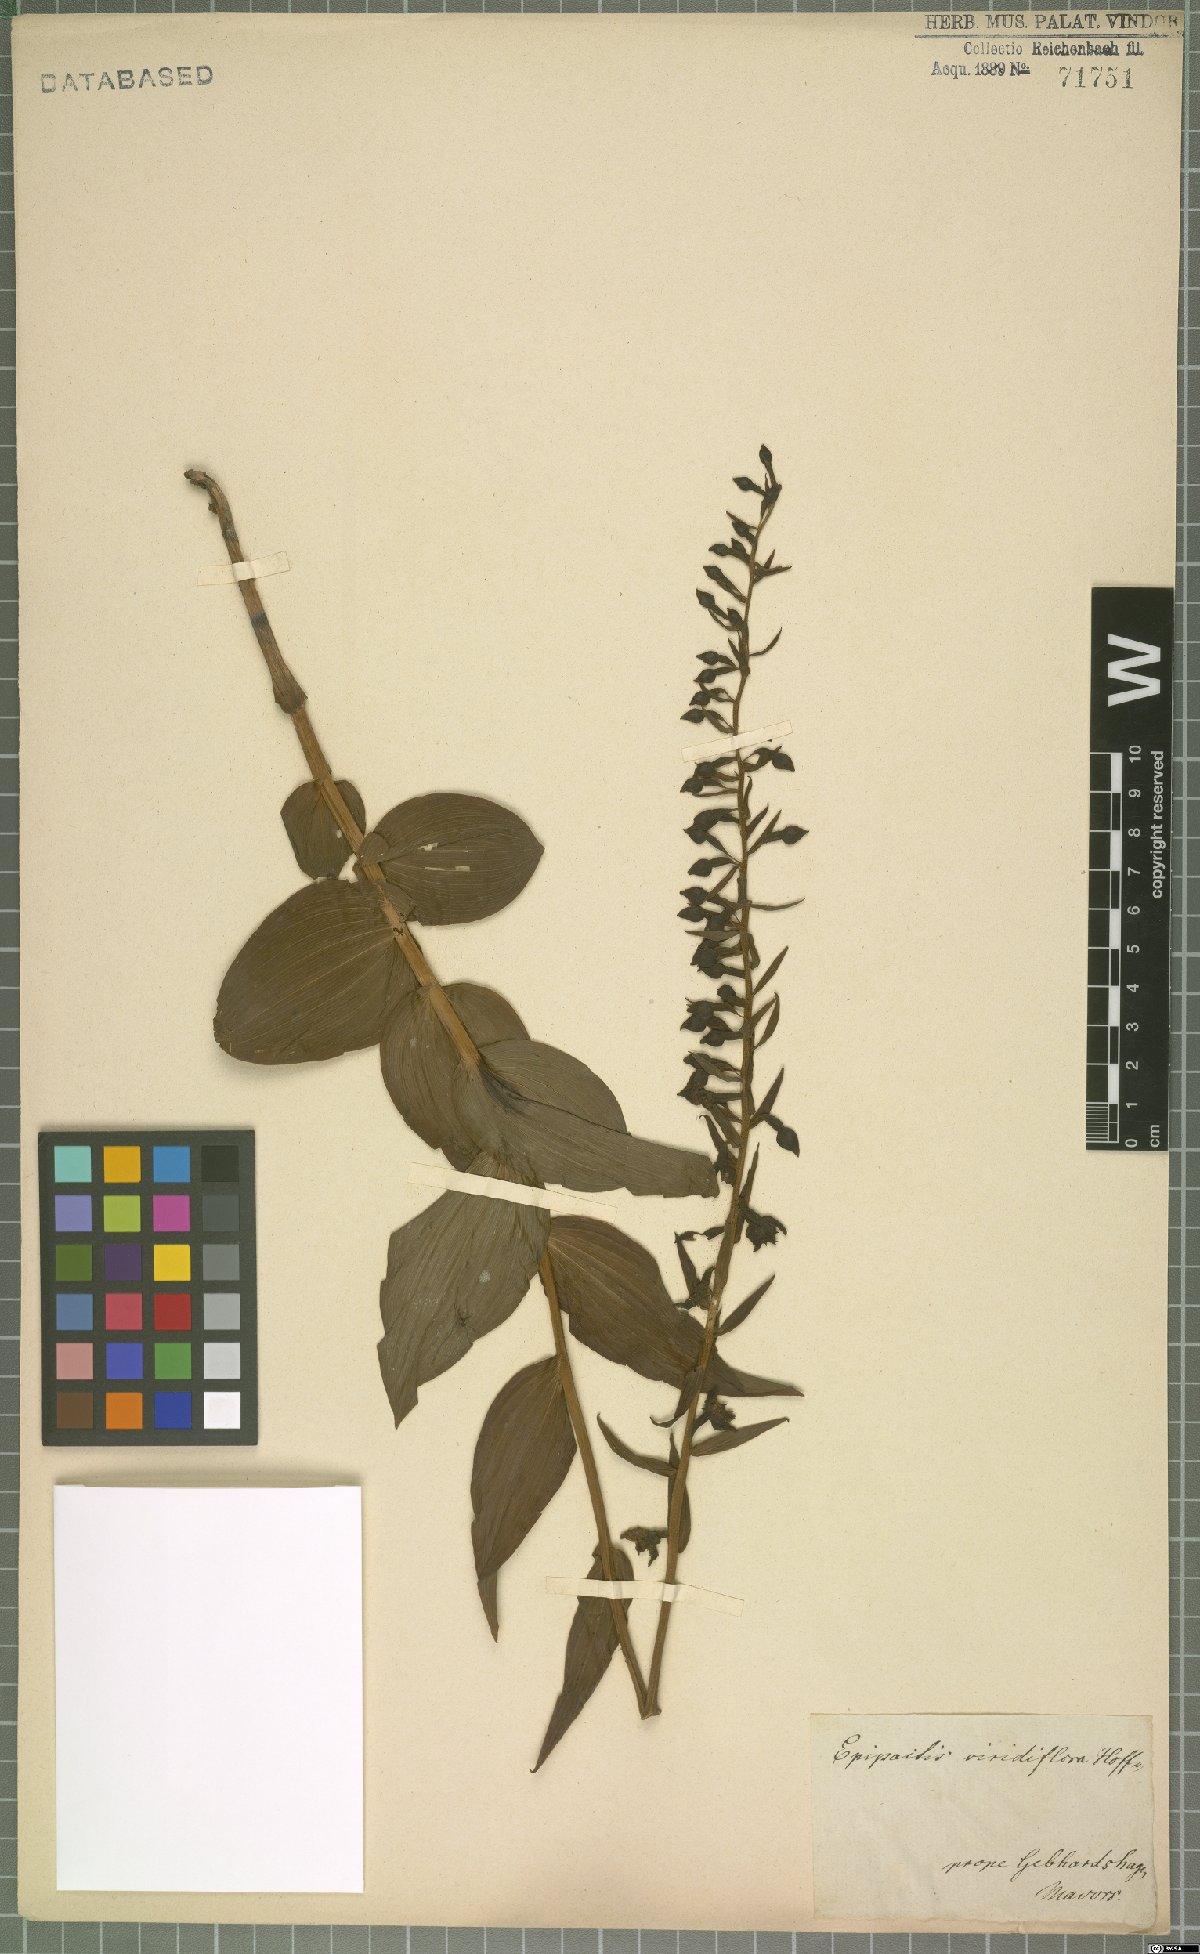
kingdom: Plantae
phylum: Tracheophyta
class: Liliopsida
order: Asparagales
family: Orchidaceae
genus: Epipactis
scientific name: Epipactis purpurata
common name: Violet helleborine
